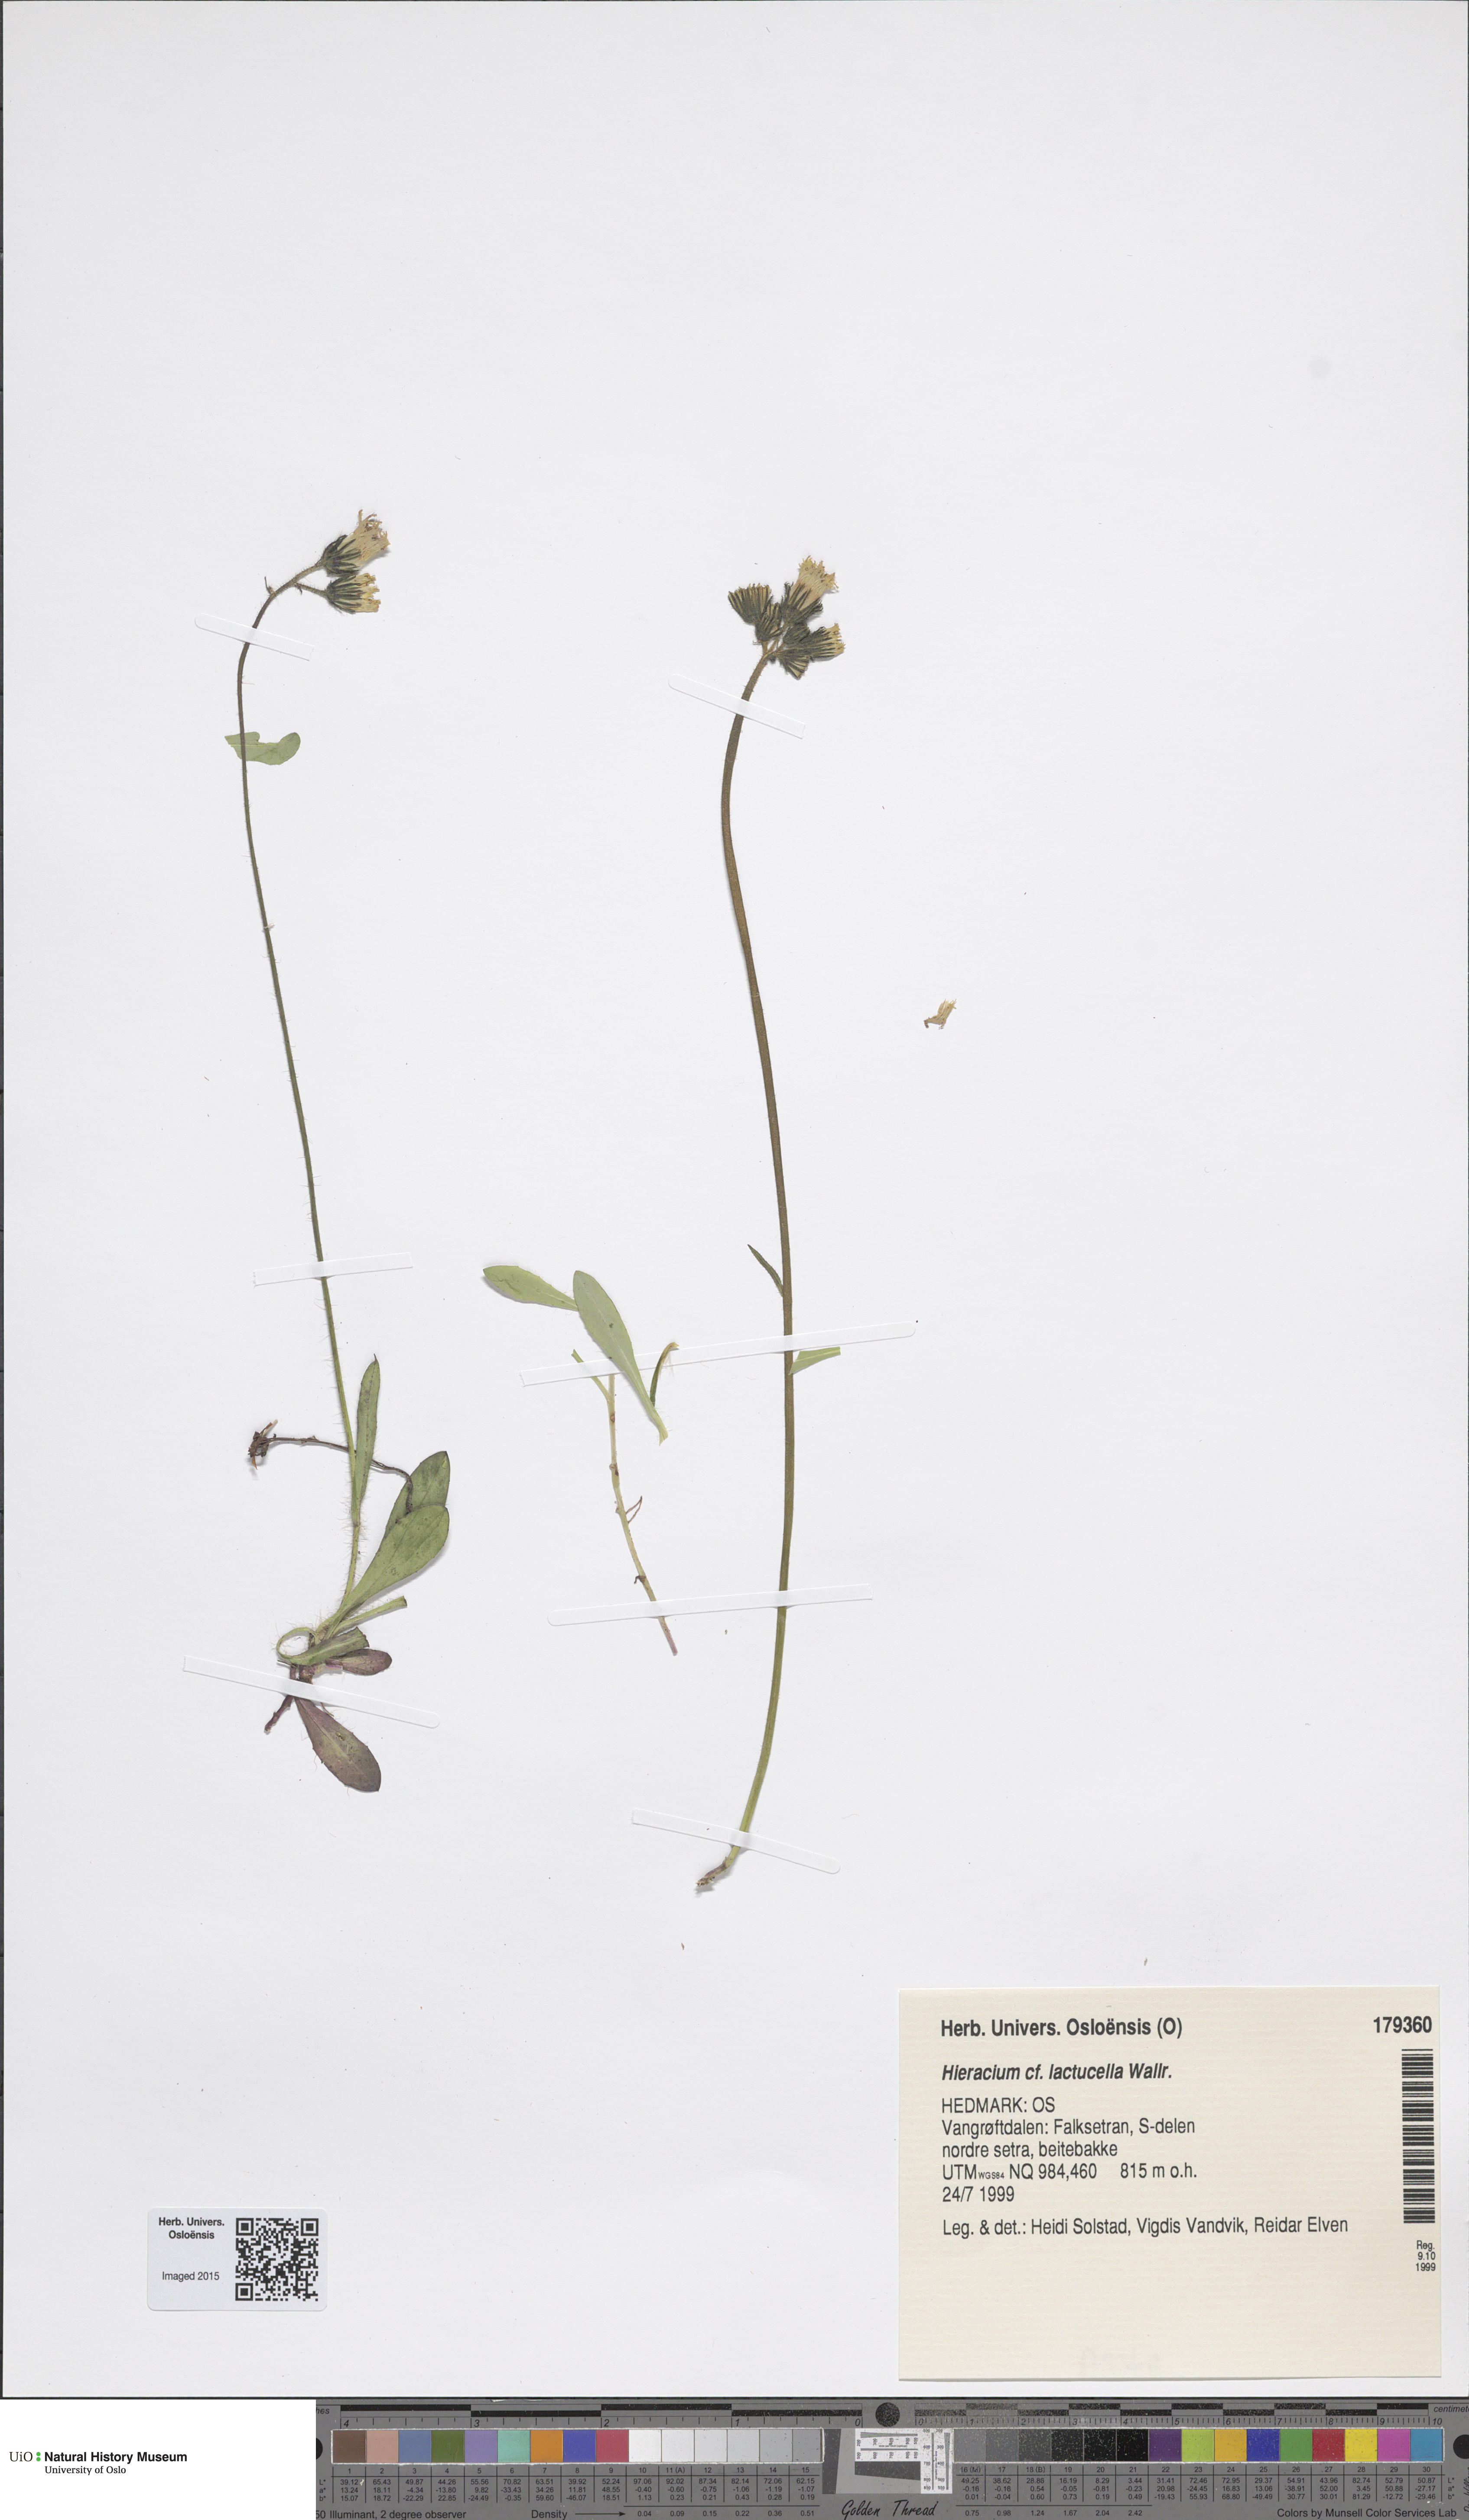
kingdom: Plantae
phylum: Tracheophyta
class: Magnoliopsida
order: Asterales
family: Asteraceae
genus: Pilosella
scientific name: Pilosella lactucella
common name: Glaucous fox-and-cubs
